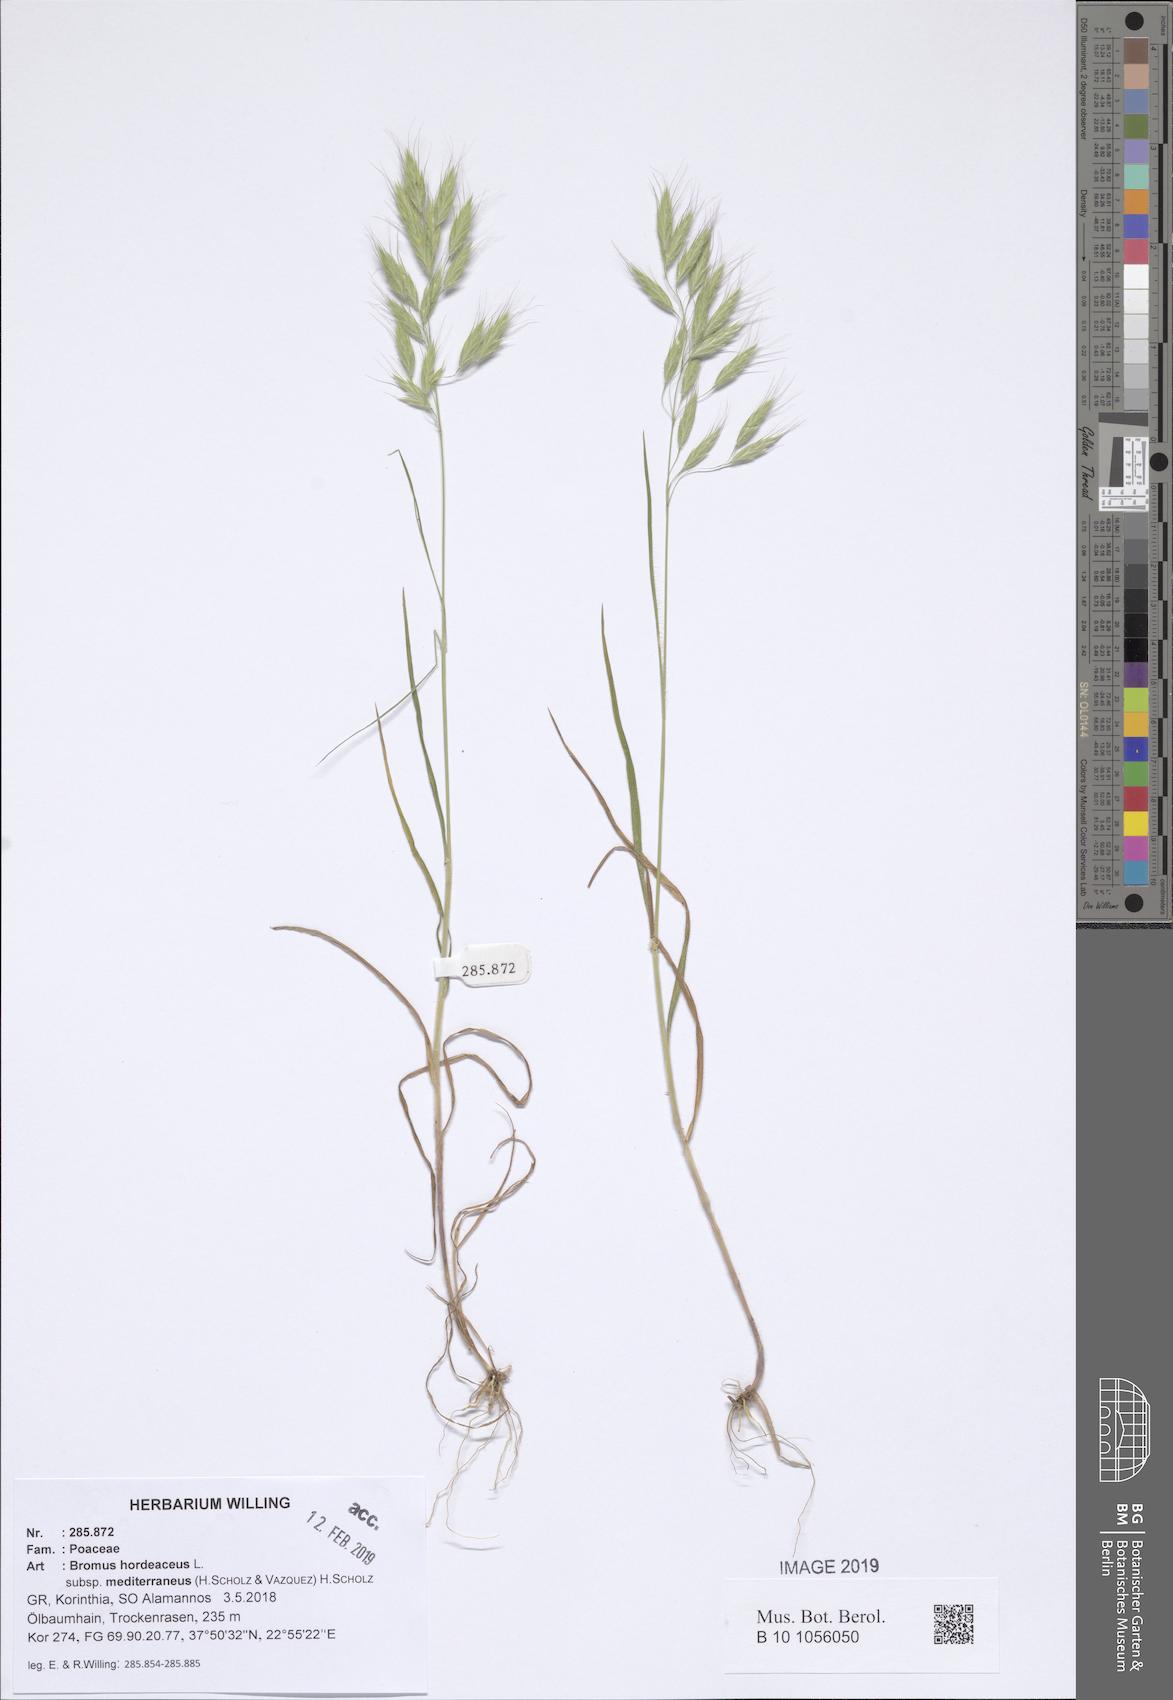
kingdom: Plantae
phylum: Tracheophyta
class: Liliopsida
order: Poales
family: Poaceae
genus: Bromus
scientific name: Bromus hordeaceus
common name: Soft brome
